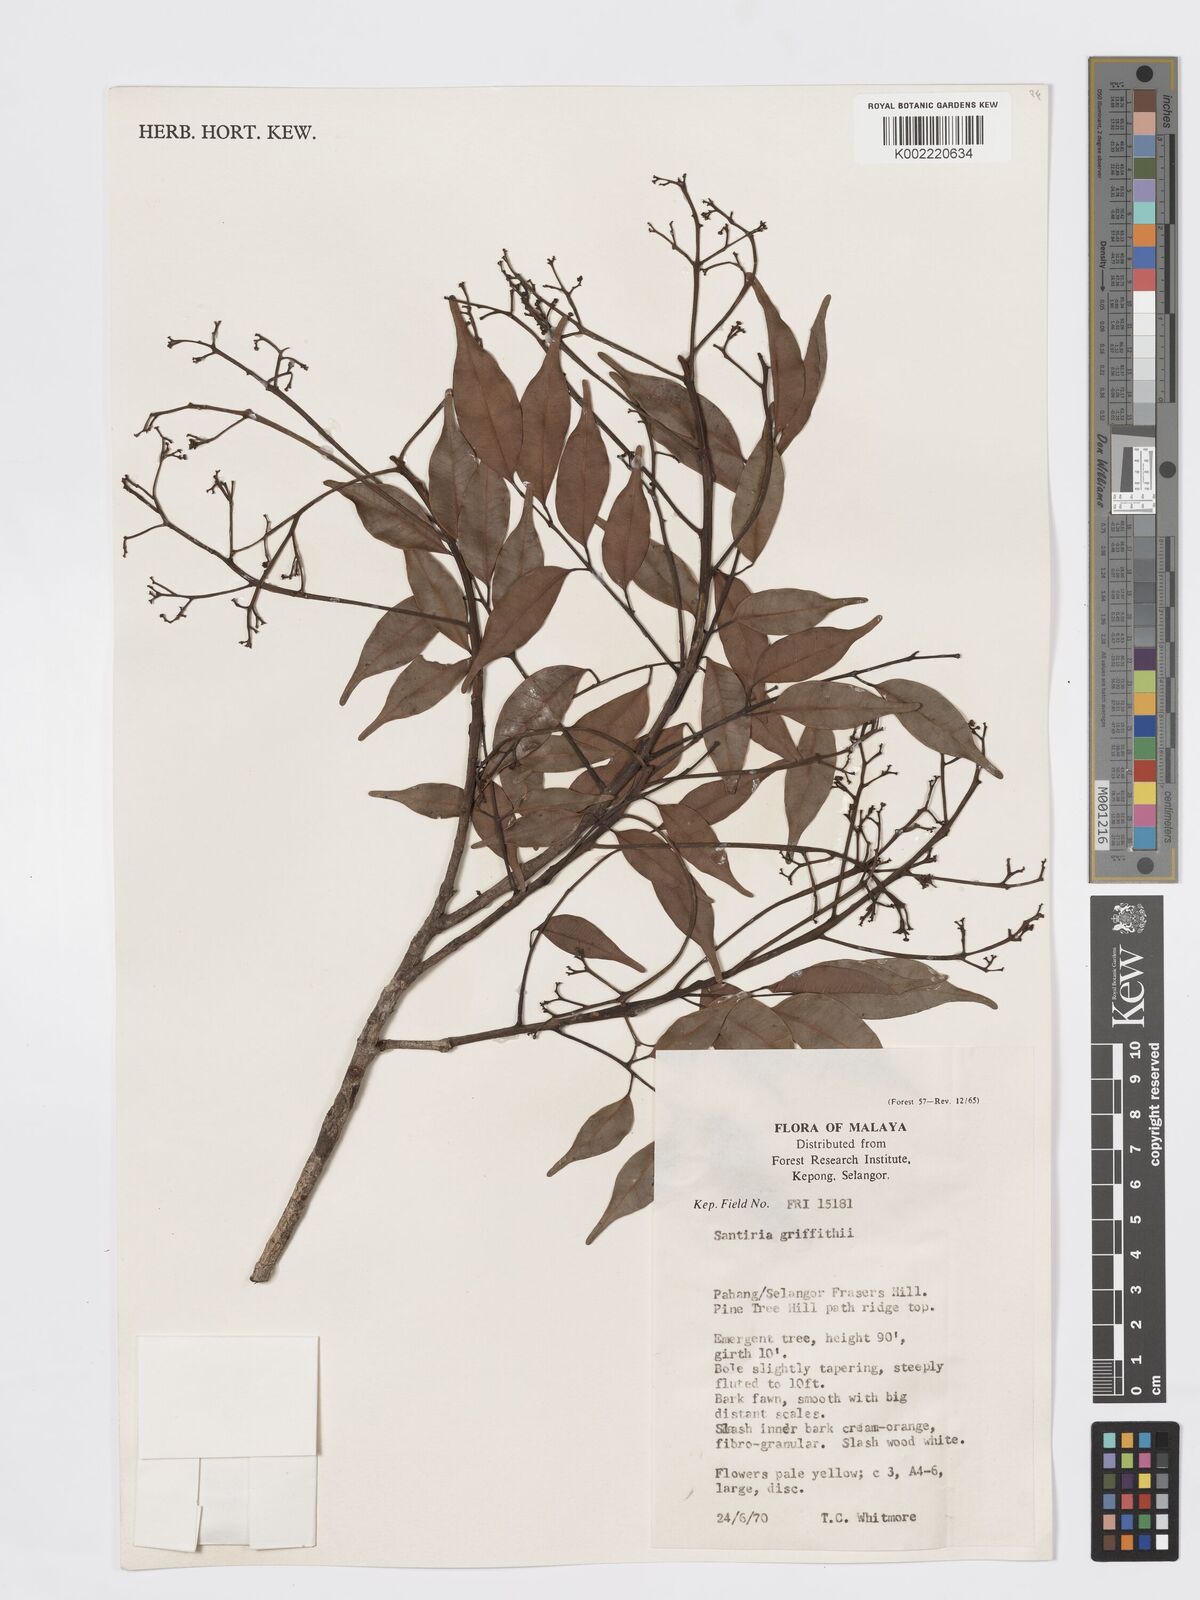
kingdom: Plantae
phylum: Tracheophyta
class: Magnoliopsida
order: Sapindales
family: Burseraceae
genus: Santiria
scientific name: Santiria griffithii
